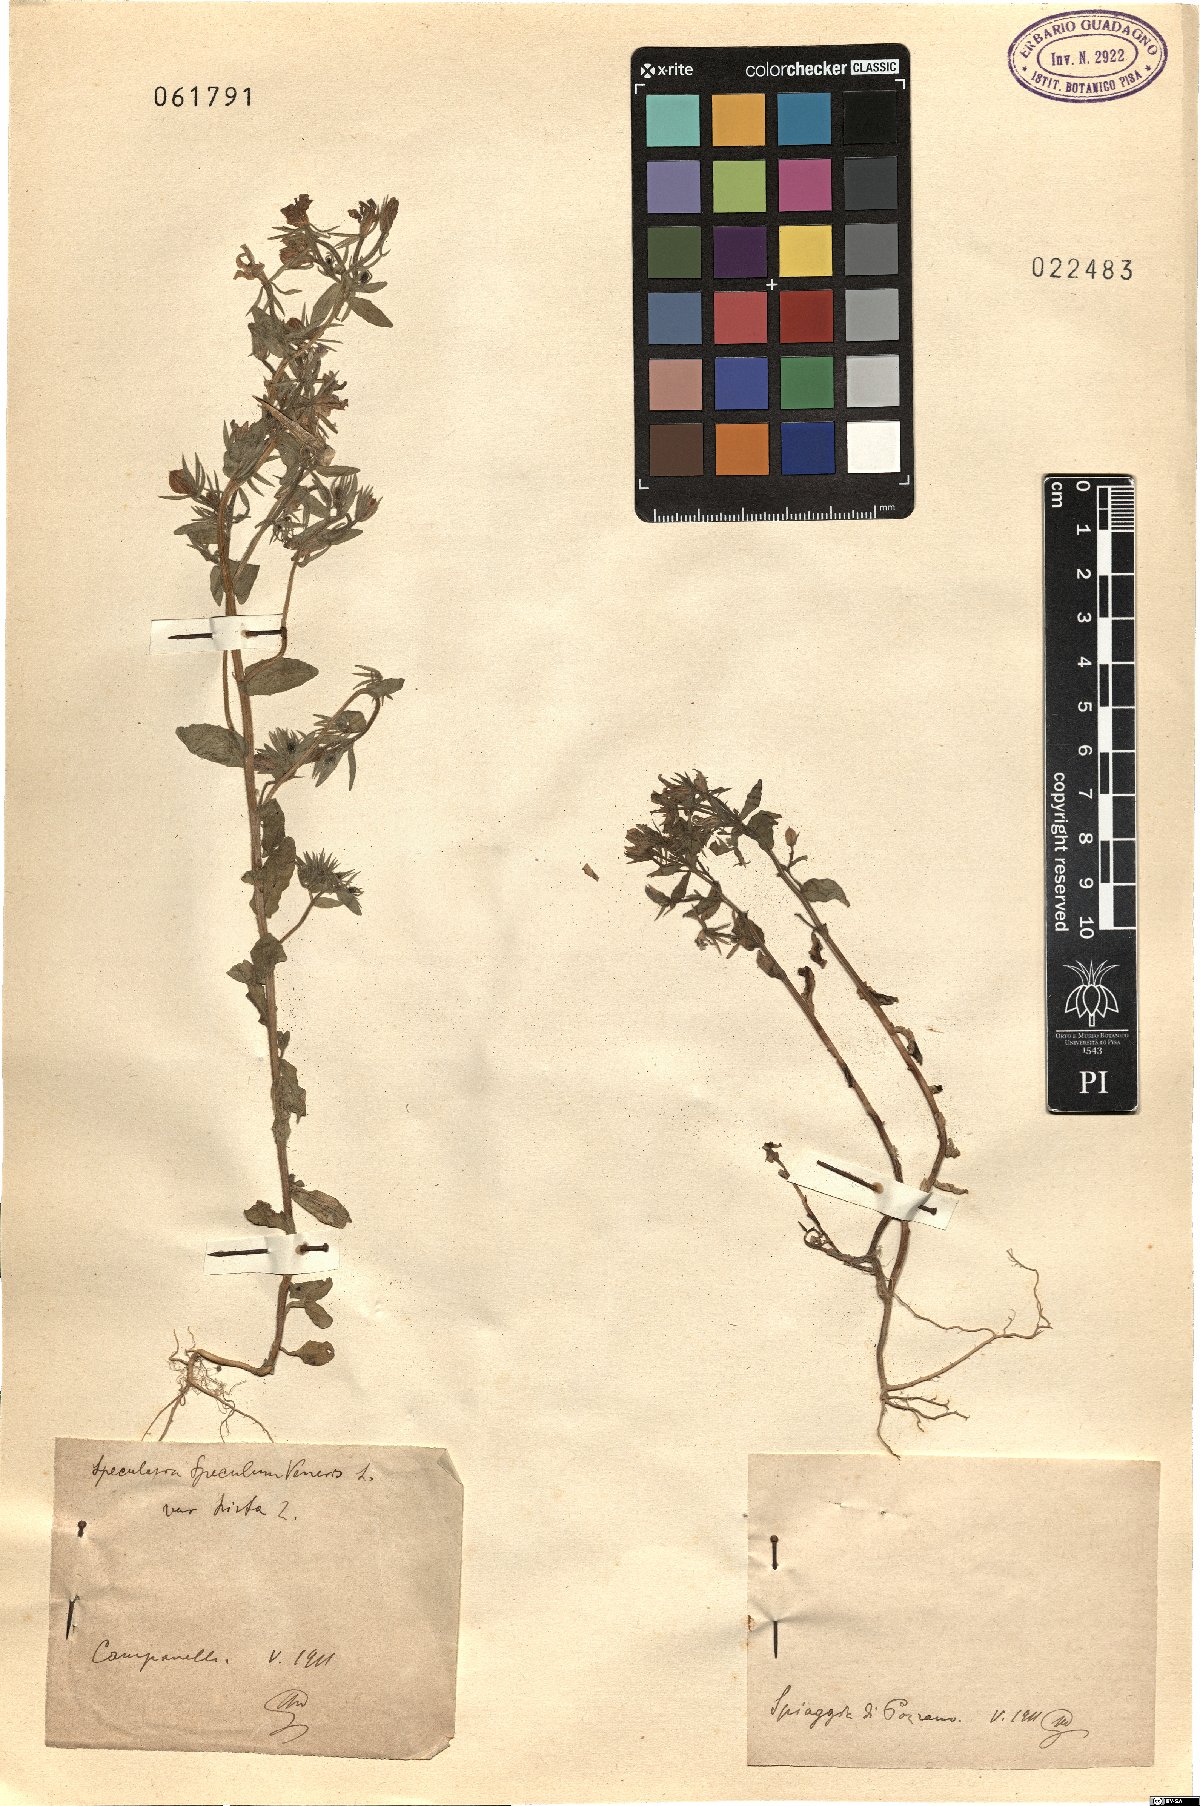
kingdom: Plantae
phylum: Tracheophyta
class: Magnoliopsida
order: Asterales
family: Campanulaceae
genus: Legousia
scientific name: Legousia speculum-veneris
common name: Large venus's-looking-glass
